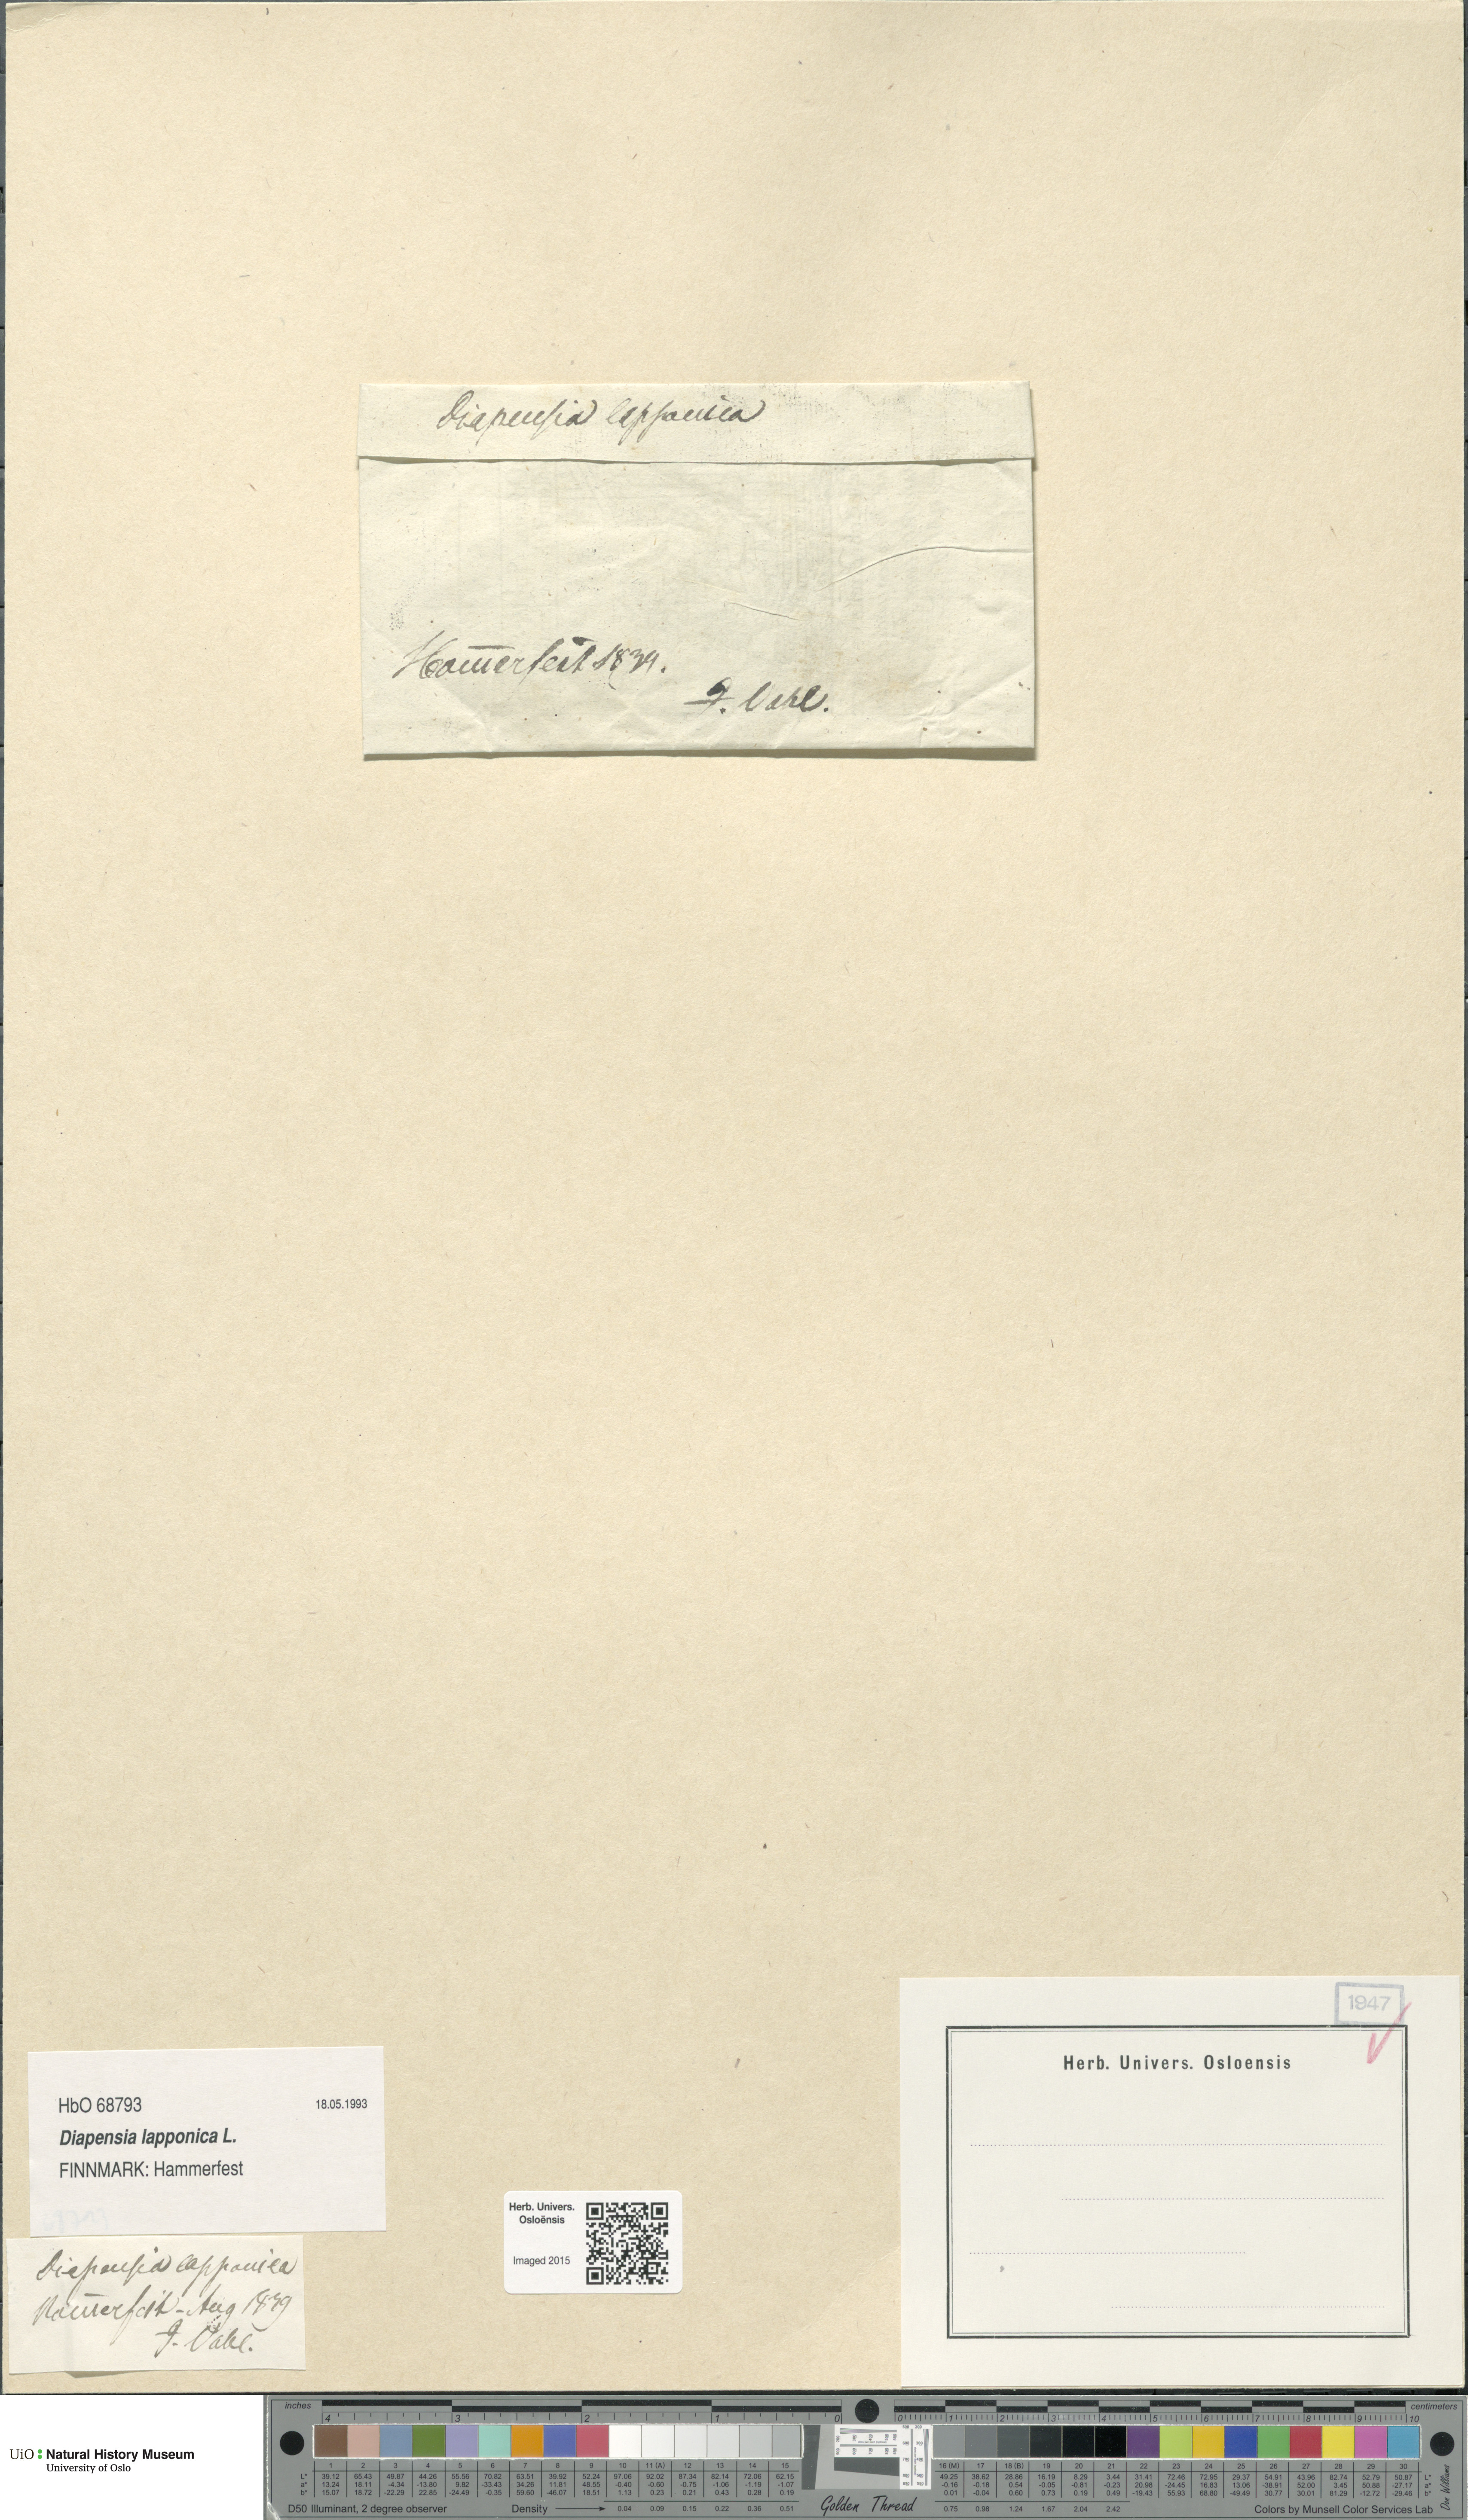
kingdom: Plantae
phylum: Tracheophyta
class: Magnoliopsida
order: Ericales
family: Diapensiaceae
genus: Diapensia
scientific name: Diapensia lapponica
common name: Diapensia
